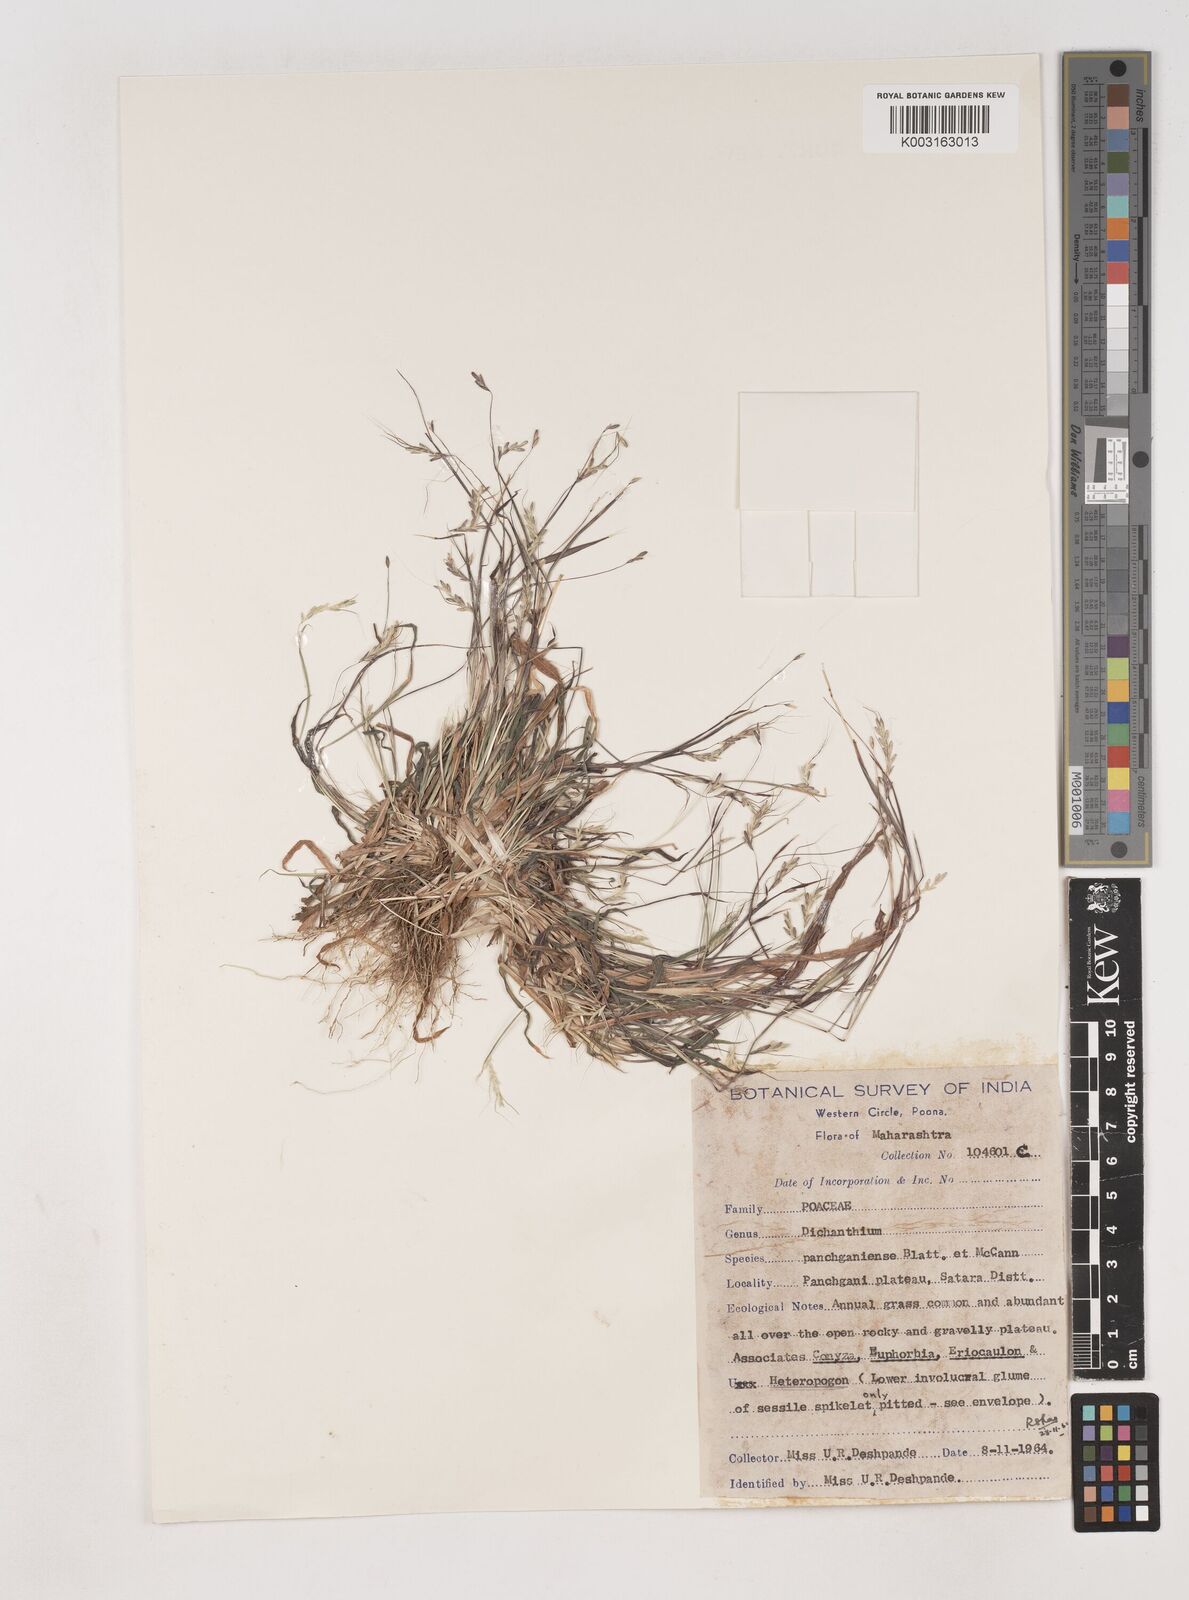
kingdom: Plantae
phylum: Tracheophyta
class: Liliopsida
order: Poales
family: Poaceae
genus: Dichanthium
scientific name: Dichanthium panchganiense
